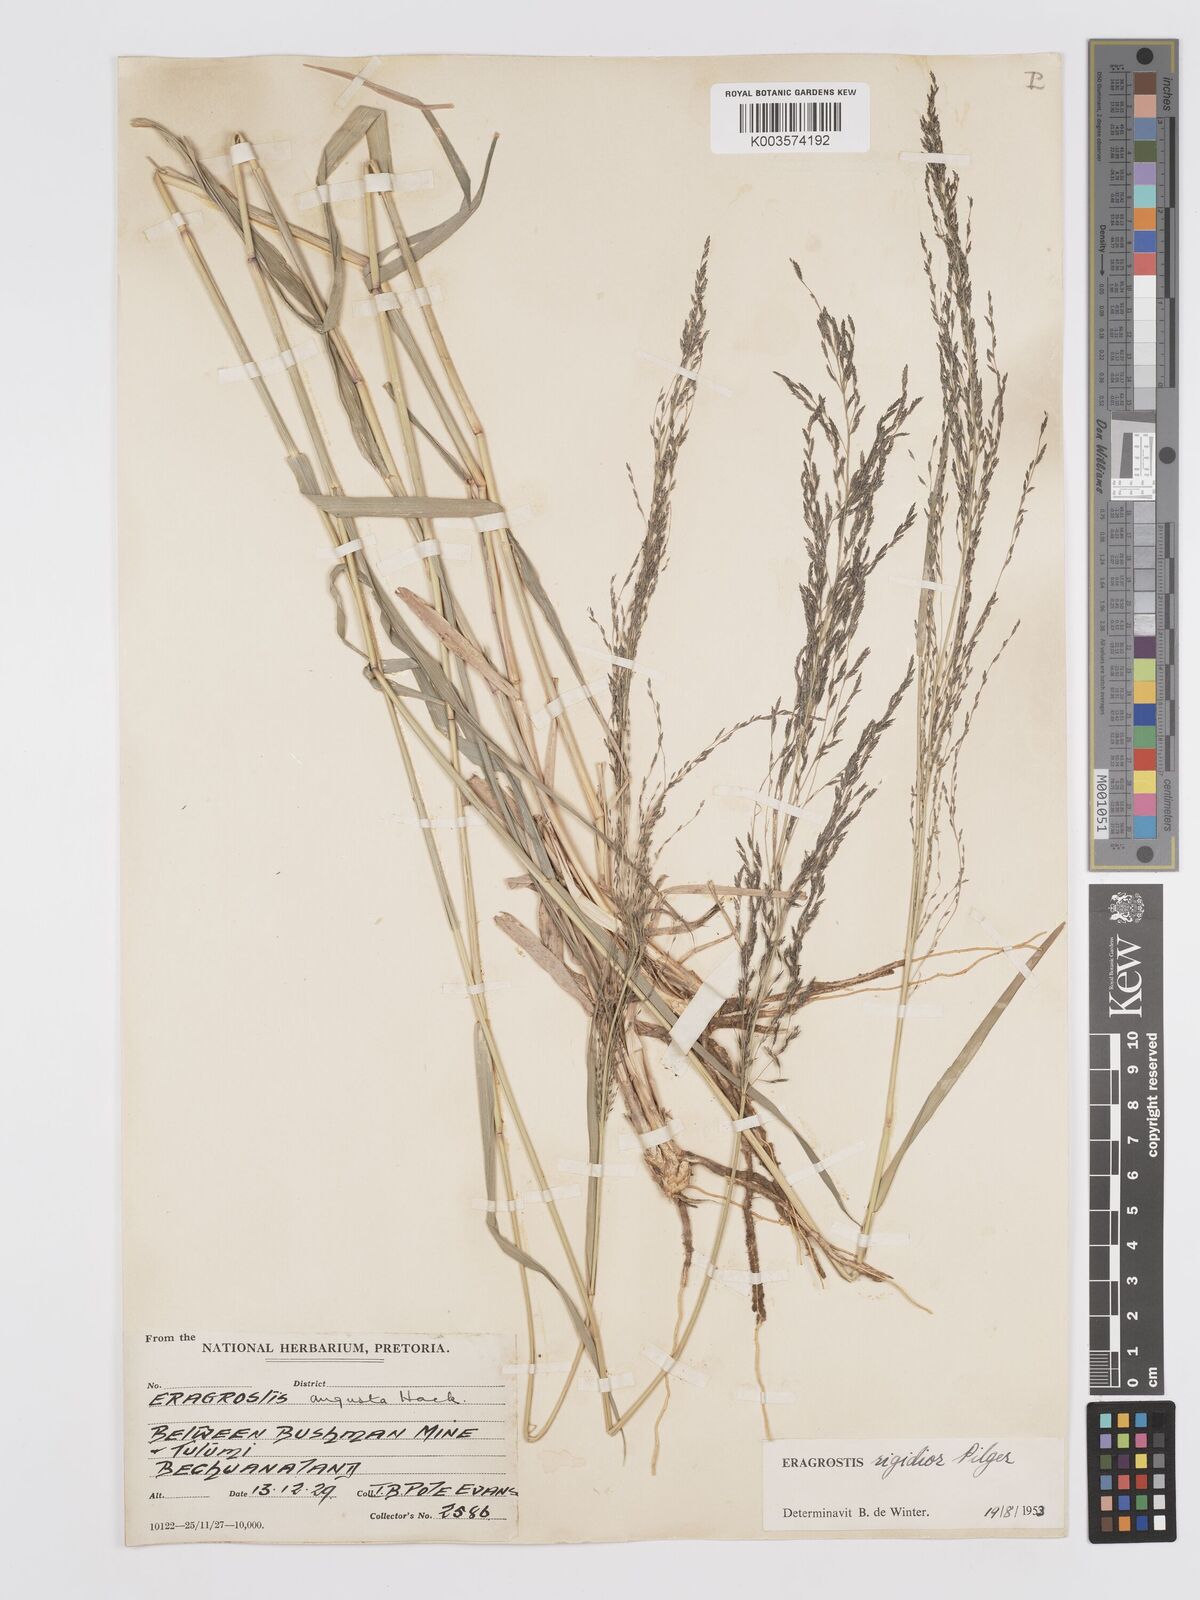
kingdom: Plantae
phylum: Tracheophyta
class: Liliopsida
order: Poales
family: Poaceae
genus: Eragrostis
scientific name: Eragrostis cylindriflora
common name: Cylinderflower lovegrass
